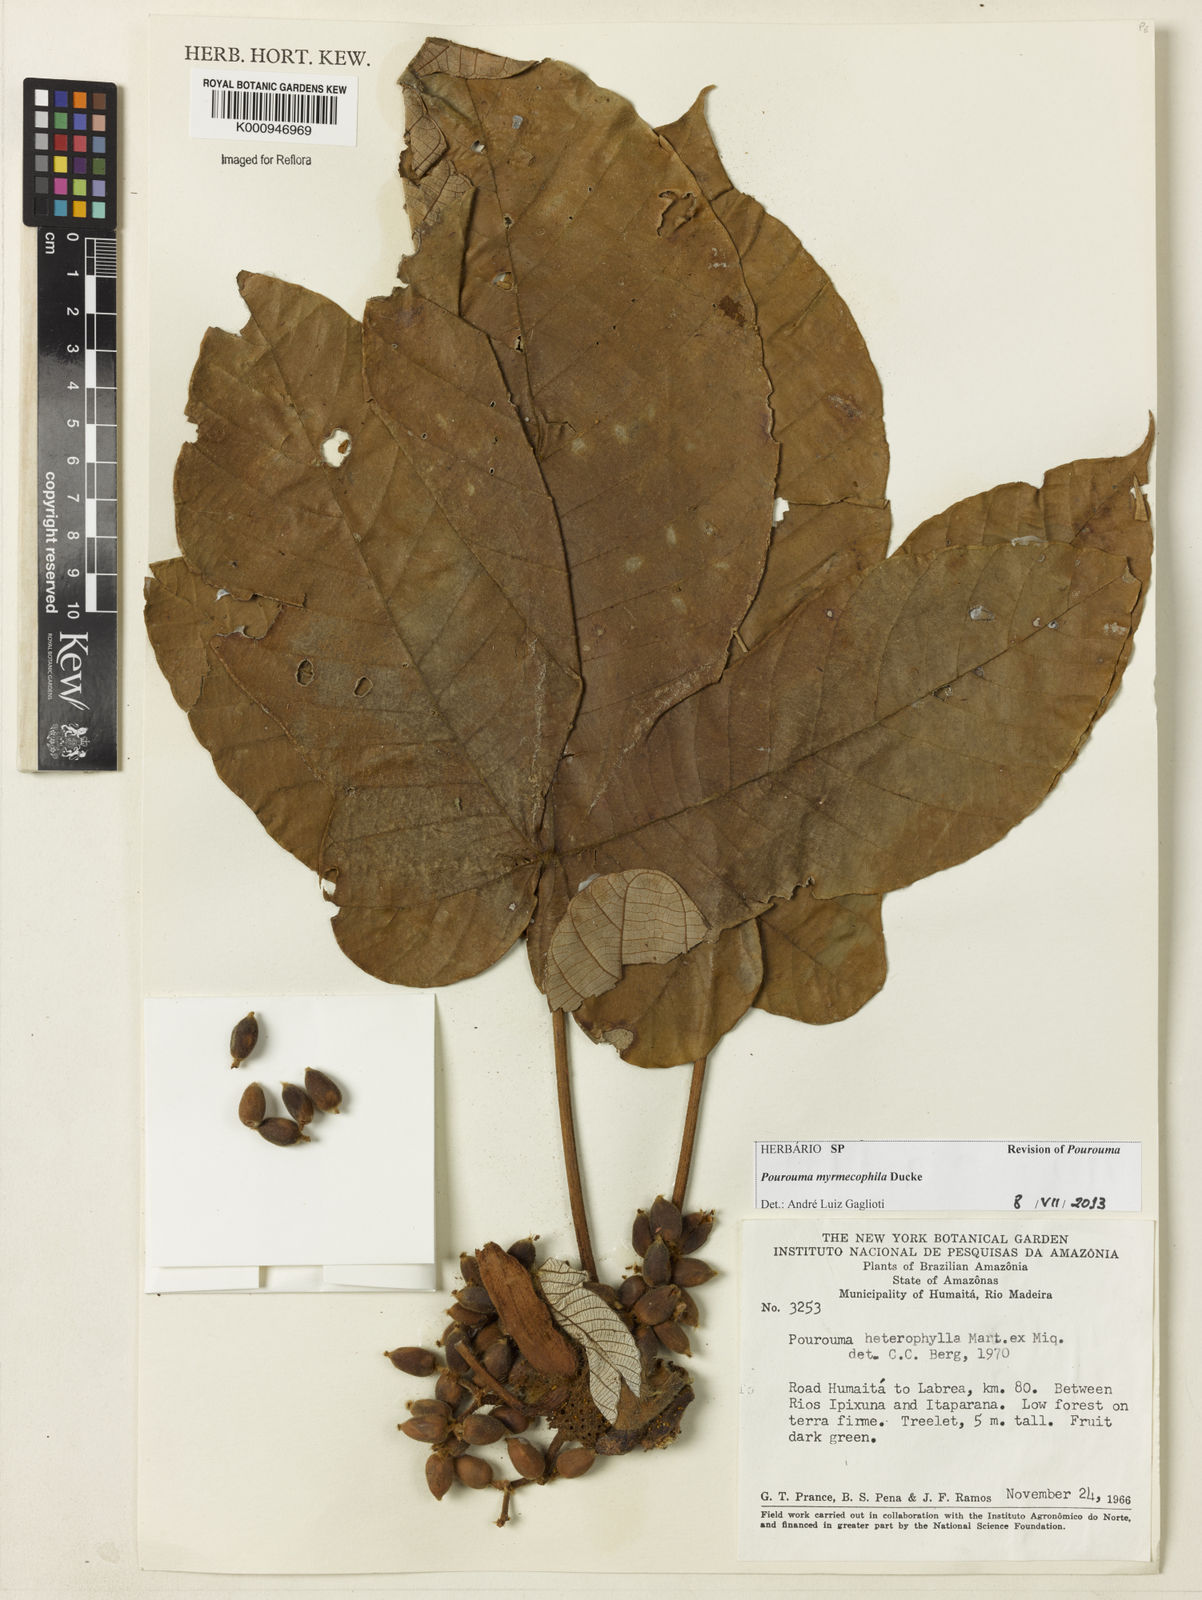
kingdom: Plantae
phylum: Tracheophyta
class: Magnoliopsida
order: Rosales
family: Urticaceae
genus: Pourouma
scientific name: Pourouma myrmecophila
